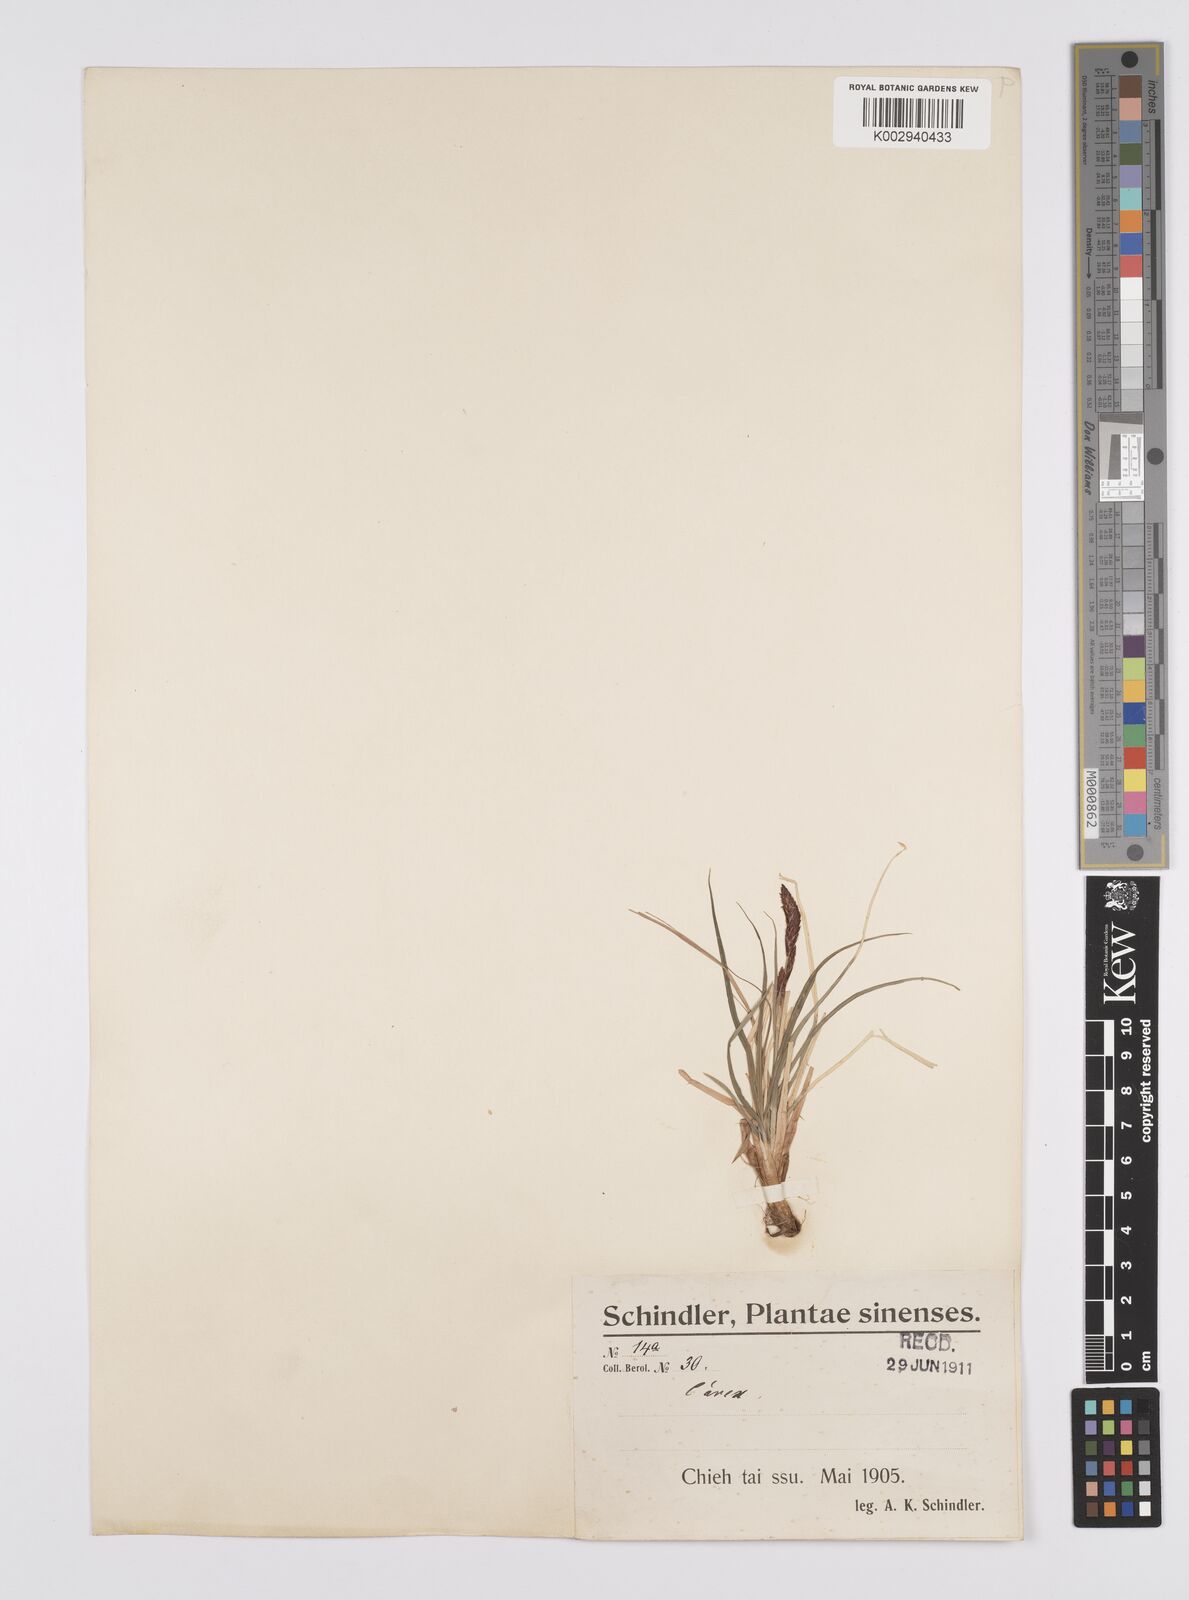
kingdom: Plantae
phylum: Tracheophyta
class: Liliopsida
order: Poales
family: Cyperaceae
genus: Carex
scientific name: Carex obscura
